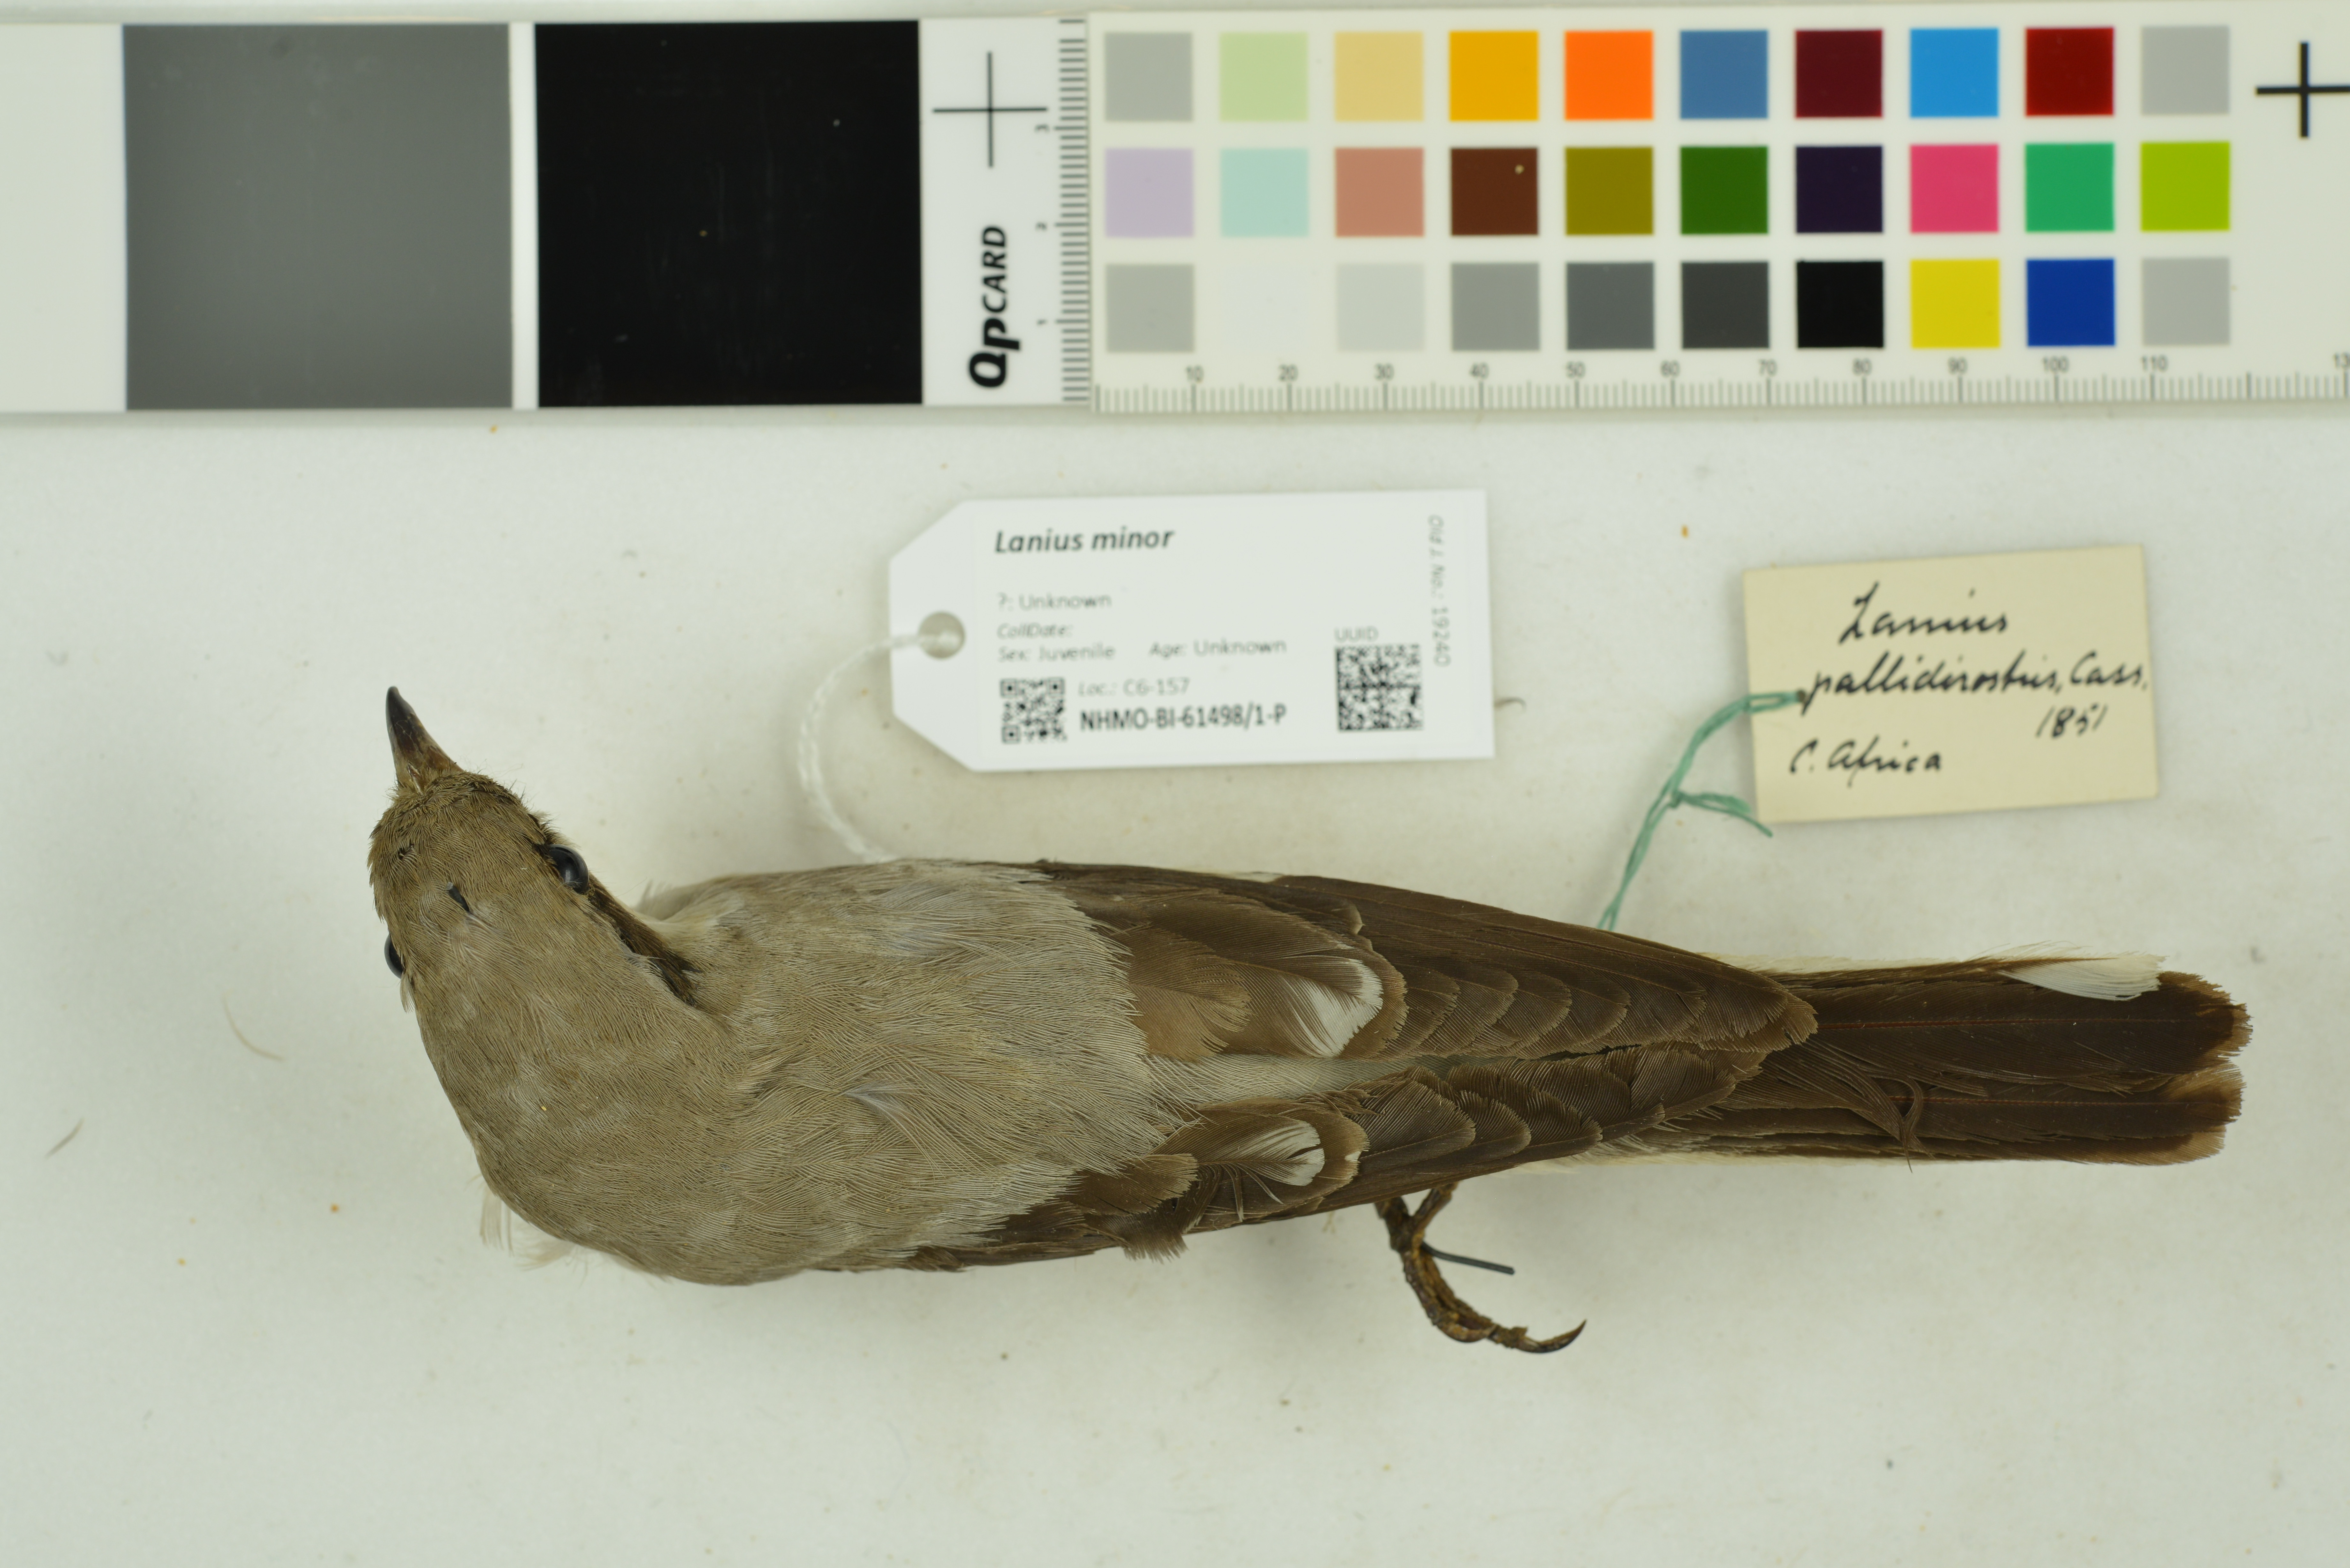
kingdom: Animalia
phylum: Chordata
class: Aves
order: Passeriformes
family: Laniidae
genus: Lanius
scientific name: Lanius minor
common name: Lesser grey shrike
